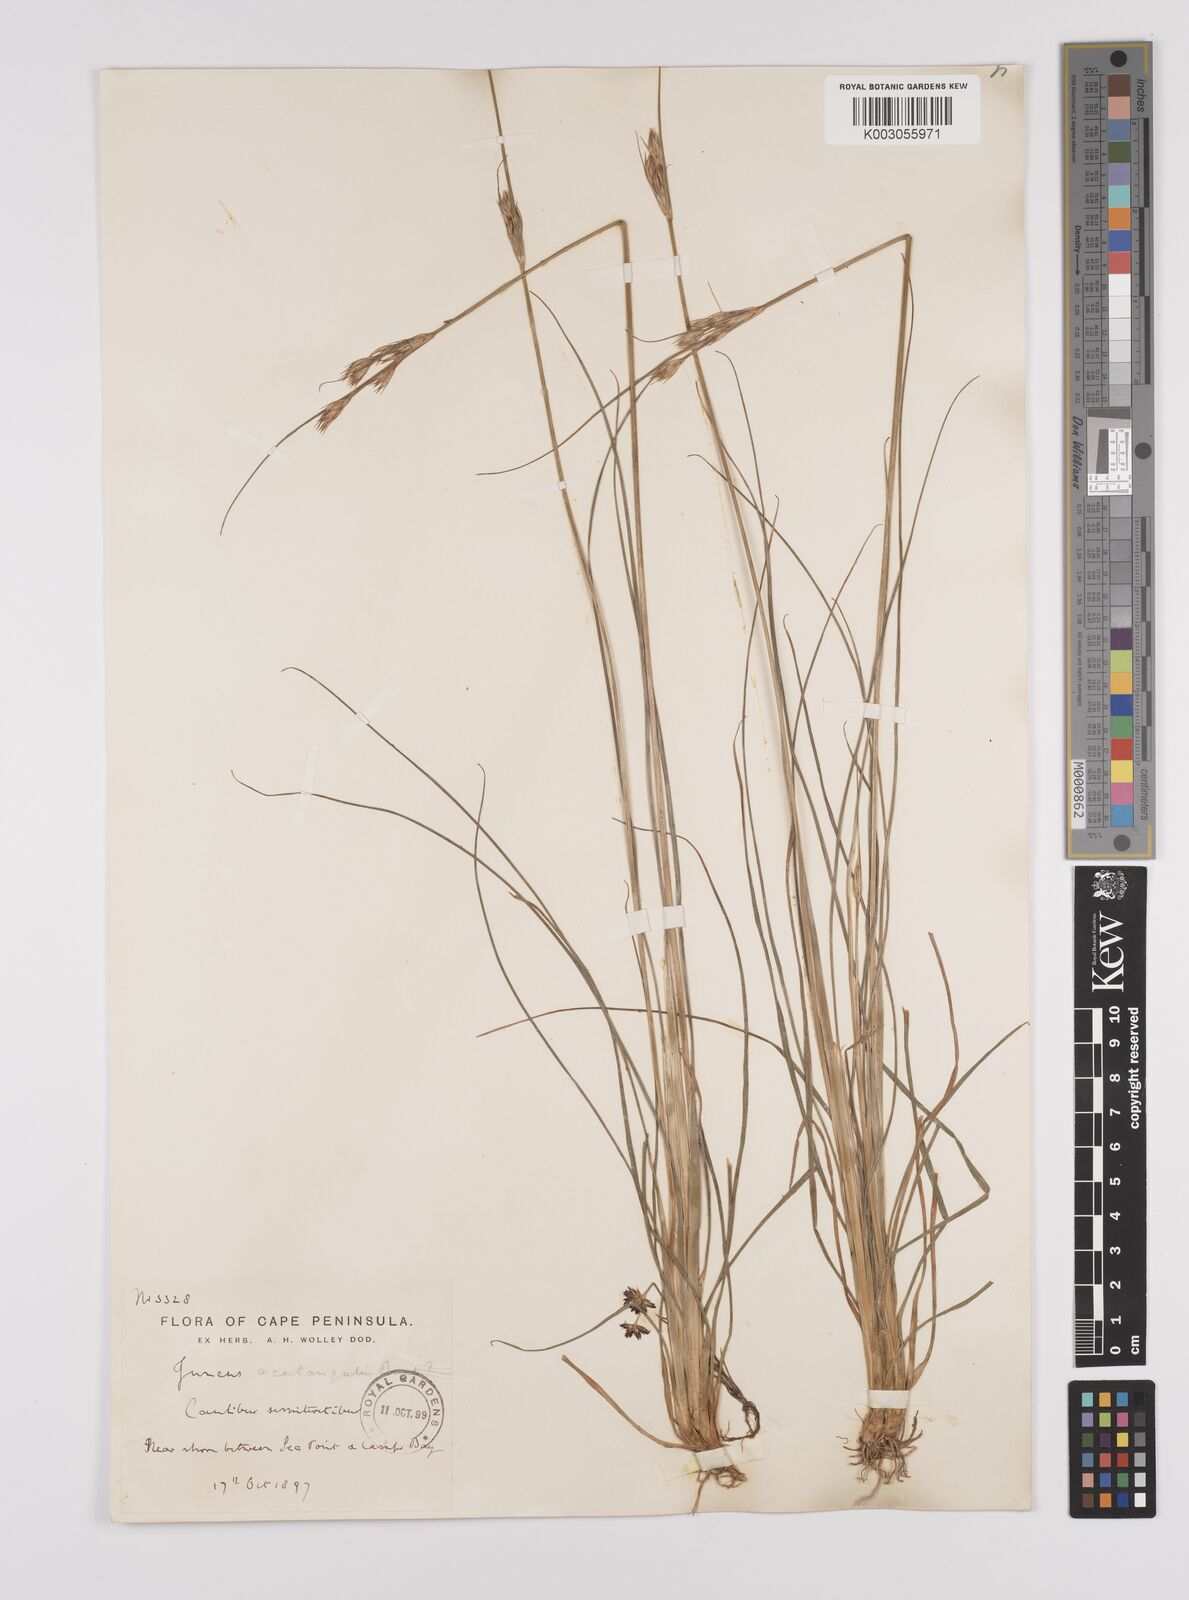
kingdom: Plantae
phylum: Tracheophyta
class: Liliopsida
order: Poales
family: Juncaceae
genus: Juncus
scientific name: Juncus capensis
